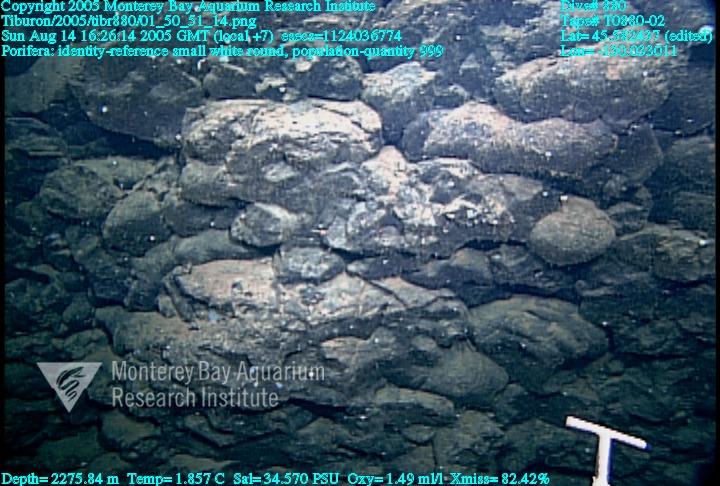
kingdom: Animalia
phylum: Porifera
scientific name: Porifera
